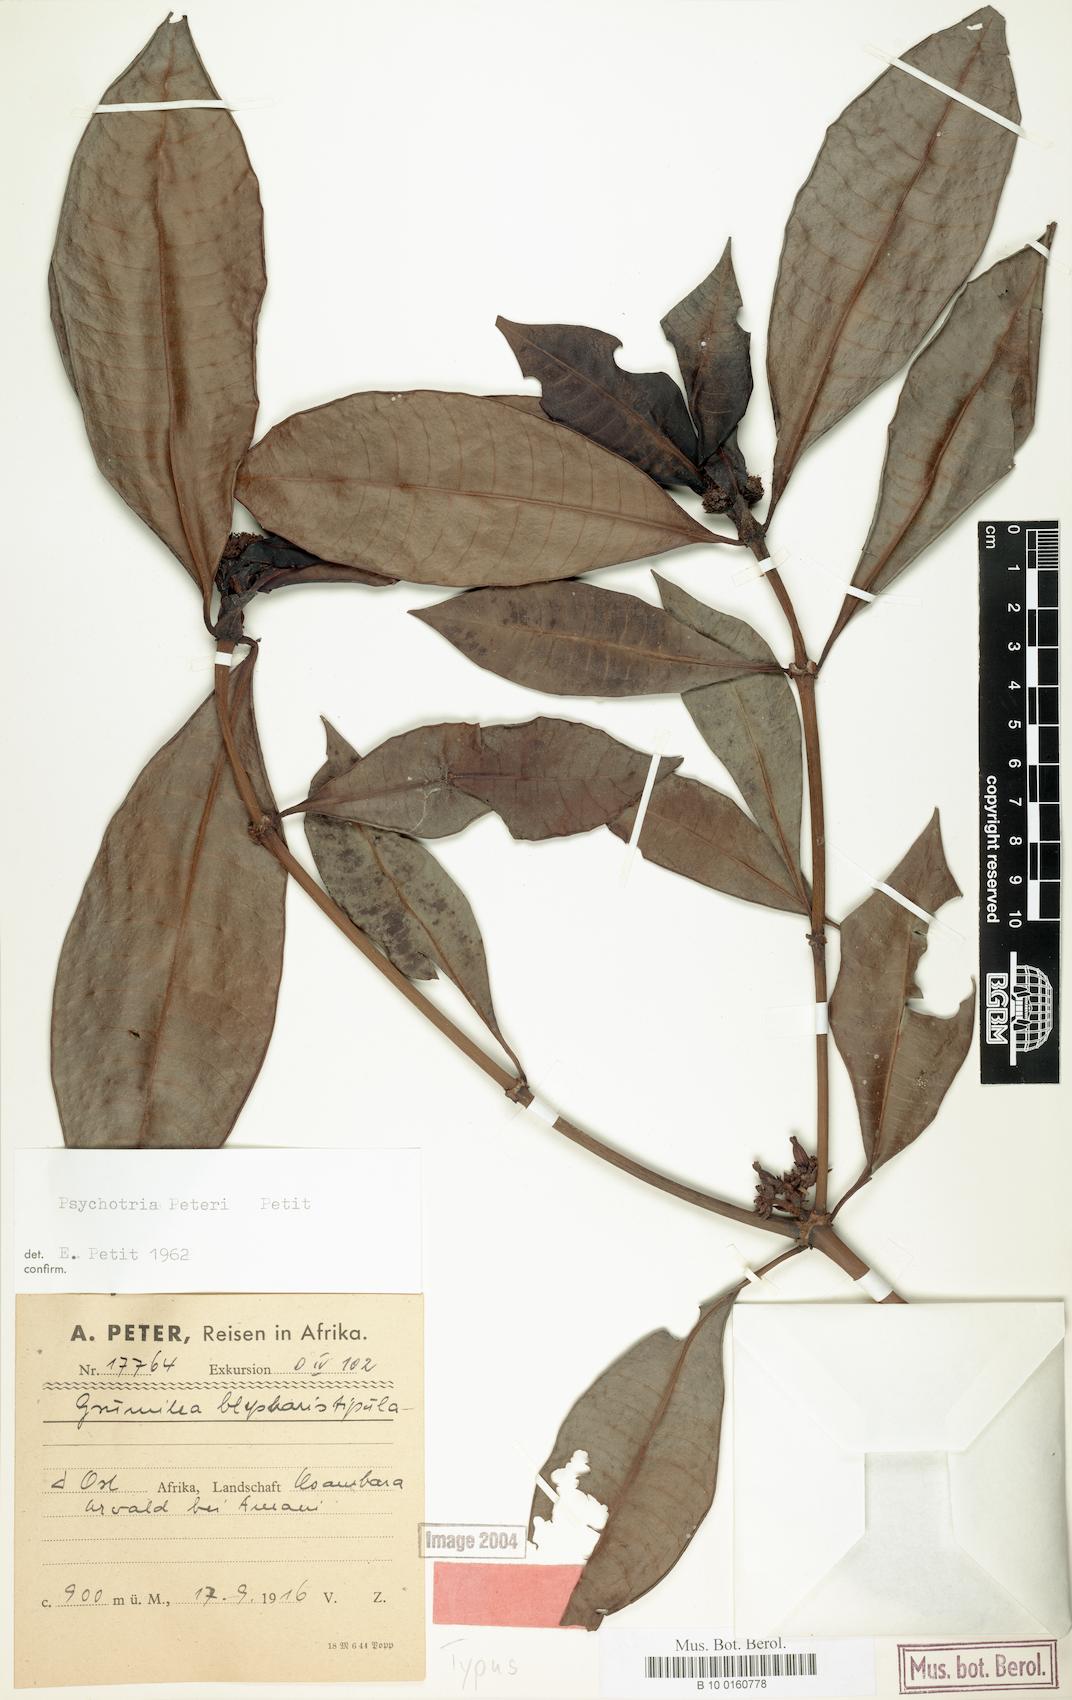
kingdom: Plantae
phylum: Tracheophyta
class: Magnoliopsida
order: Gentianales
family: Rubiaceae
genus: Psychotria
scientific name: Psychotria peteri
